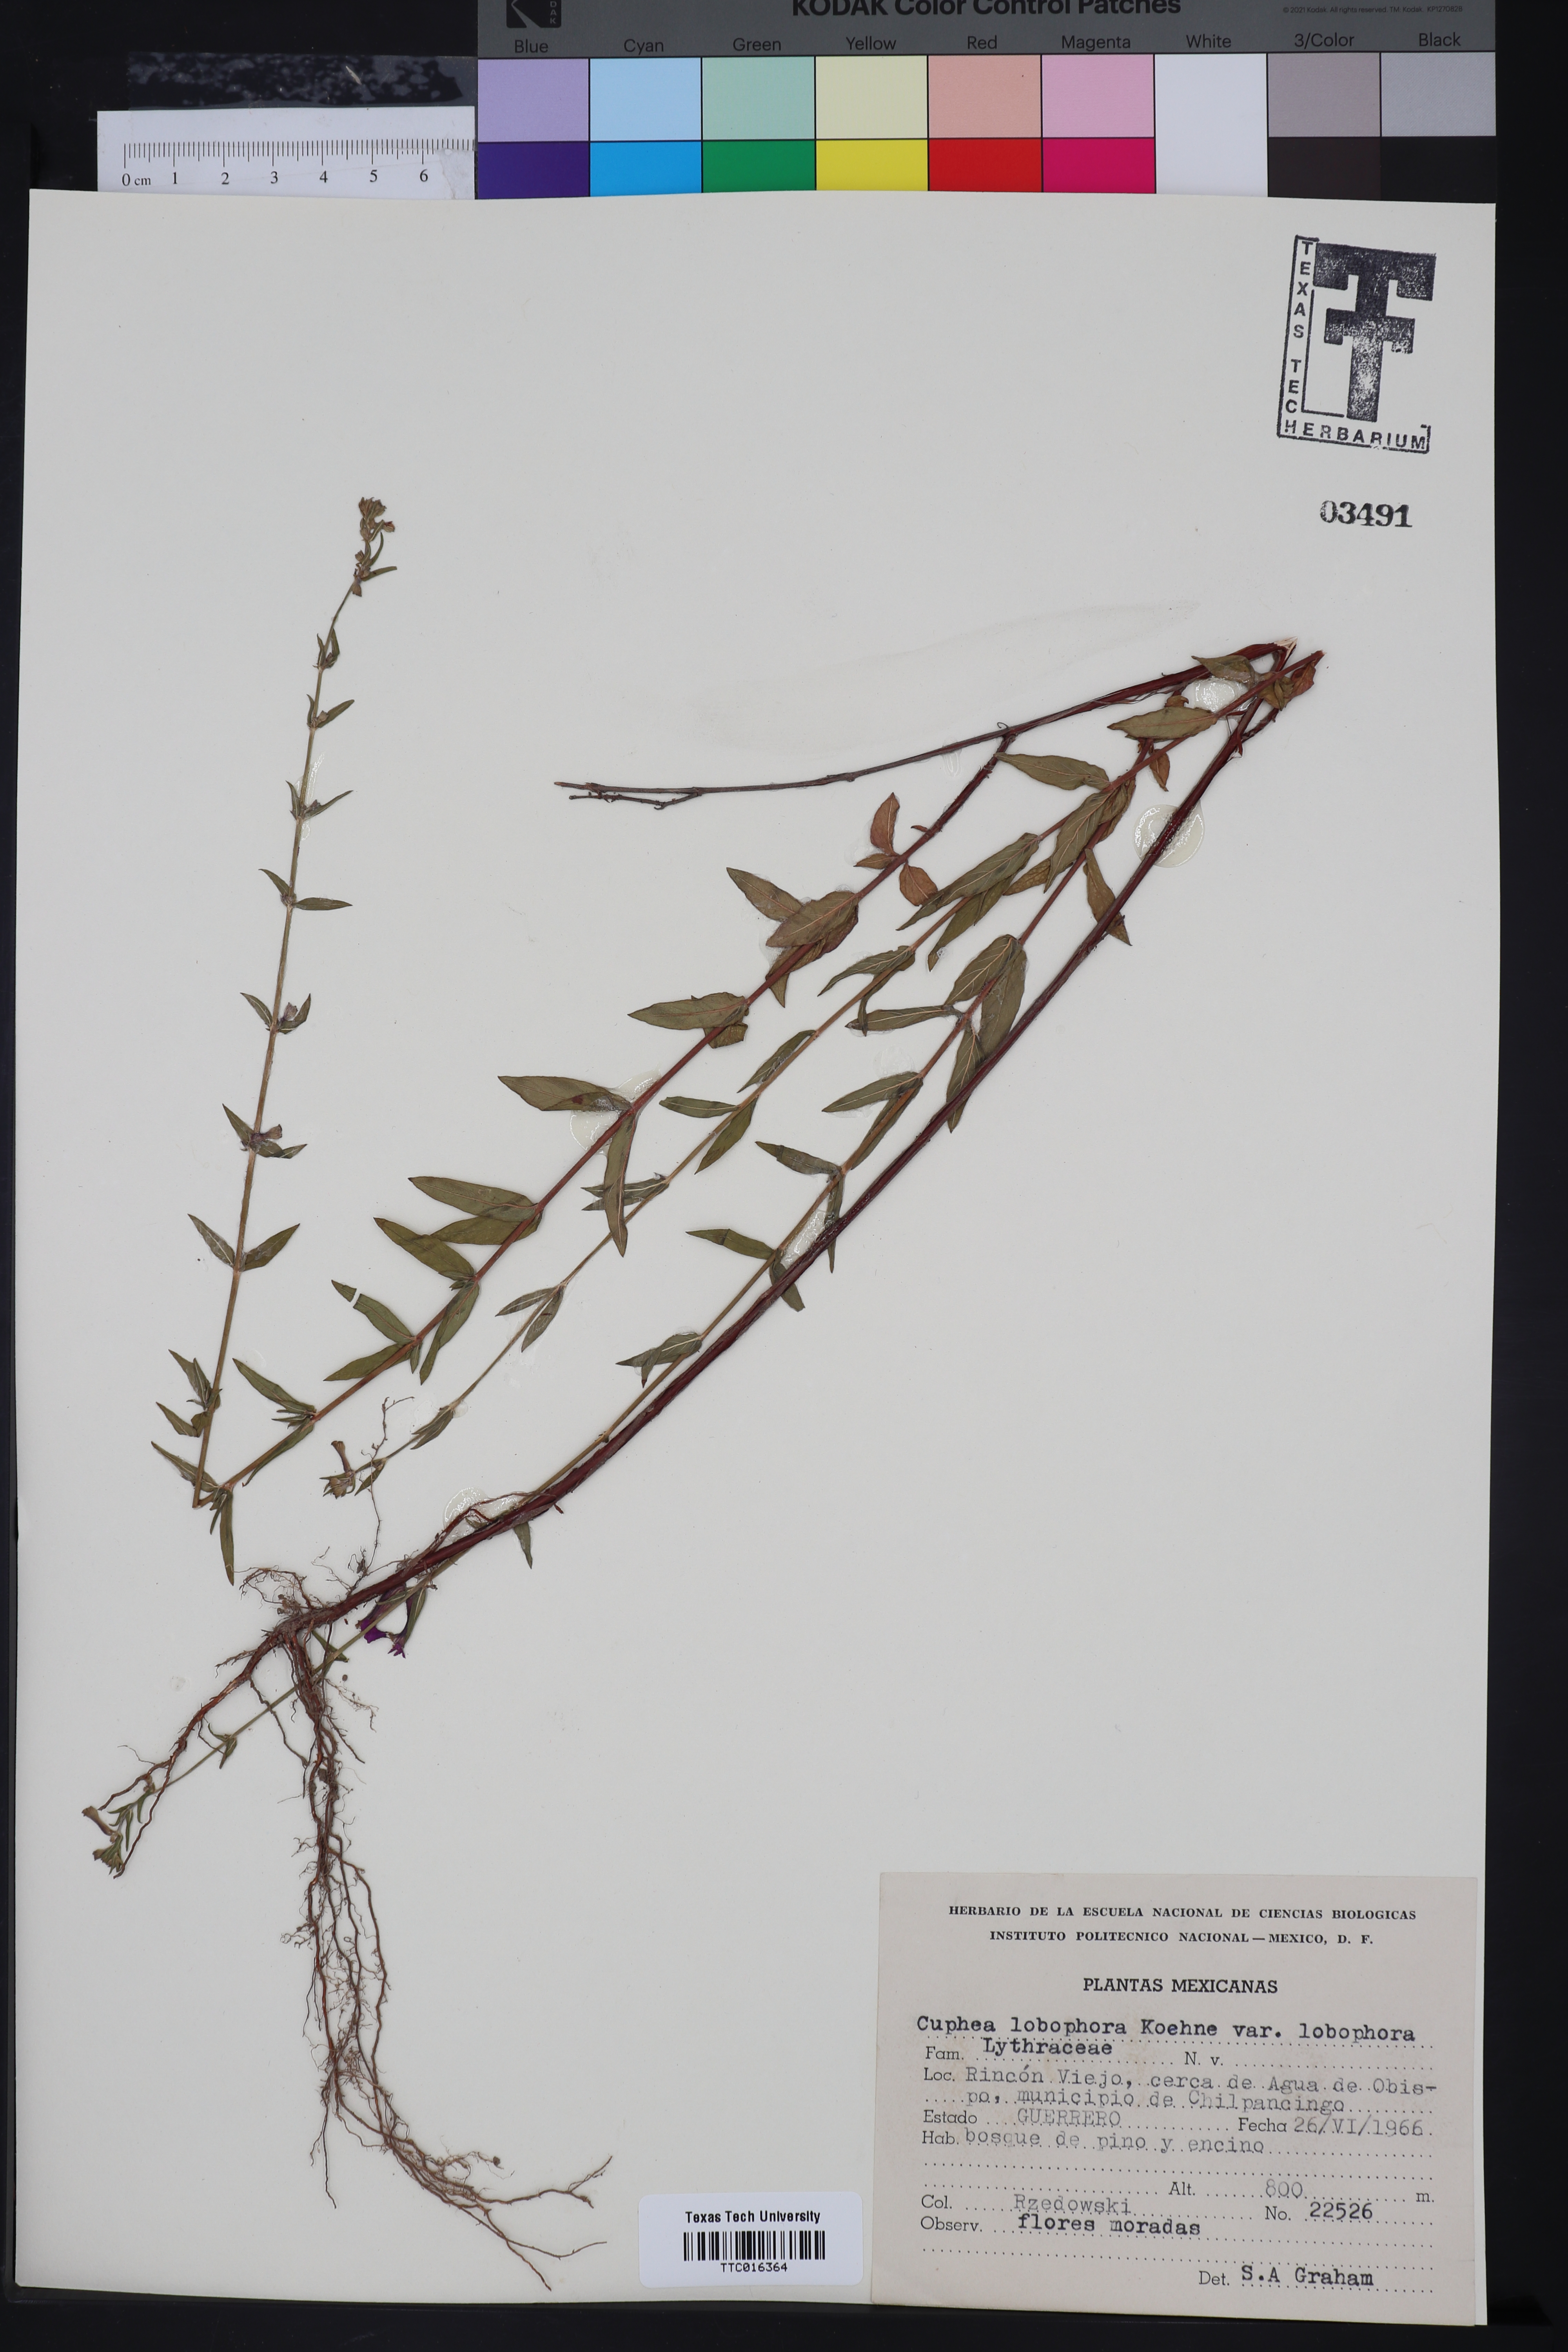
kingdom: Plantae
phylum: Tracheophyta
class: Magnoliopsida
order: Myrtales
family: Lythraceae
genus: Cuphea
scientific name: Cuphea lobophora
